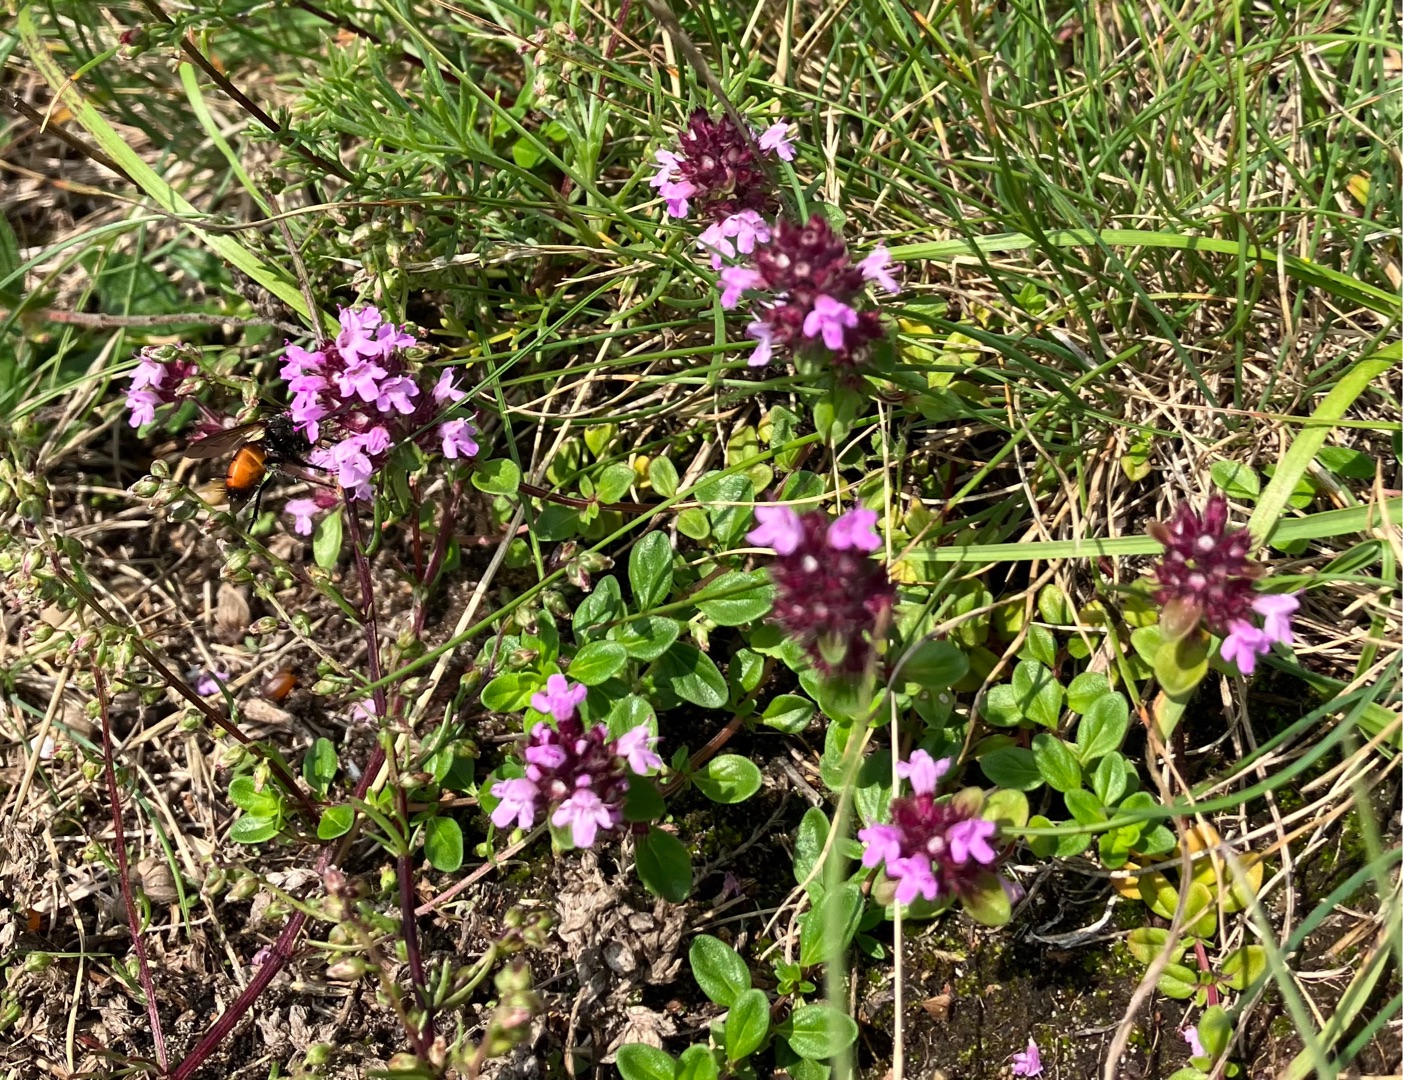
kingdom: Plantae
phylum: Tracheophyta
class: Magnoliopsida
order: Lamiales
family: Lamiaceae
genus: Thymus
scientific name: Thymus pulegioides
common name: Bredbladet timian
